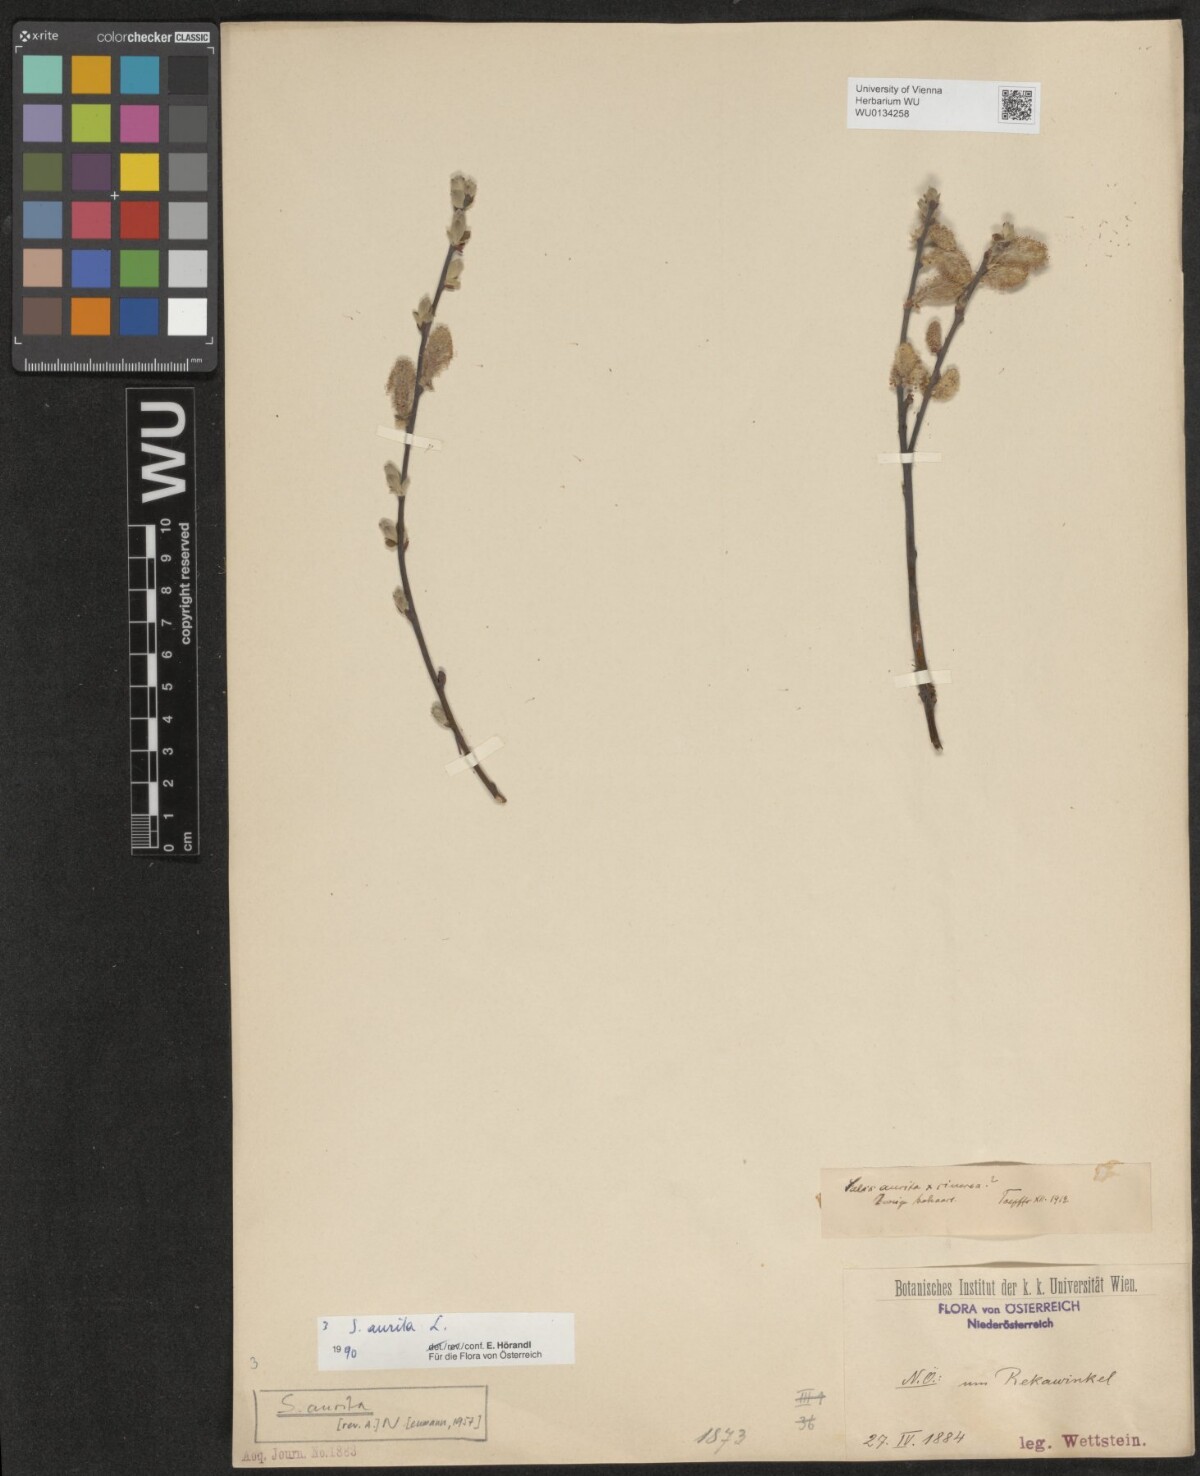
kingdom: Plantae
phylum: Tracheophyta
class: Magnoliopsida
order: Malpighiales
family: Salicaceae
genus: Salix
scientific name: Salix aurita
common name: Eared willow
